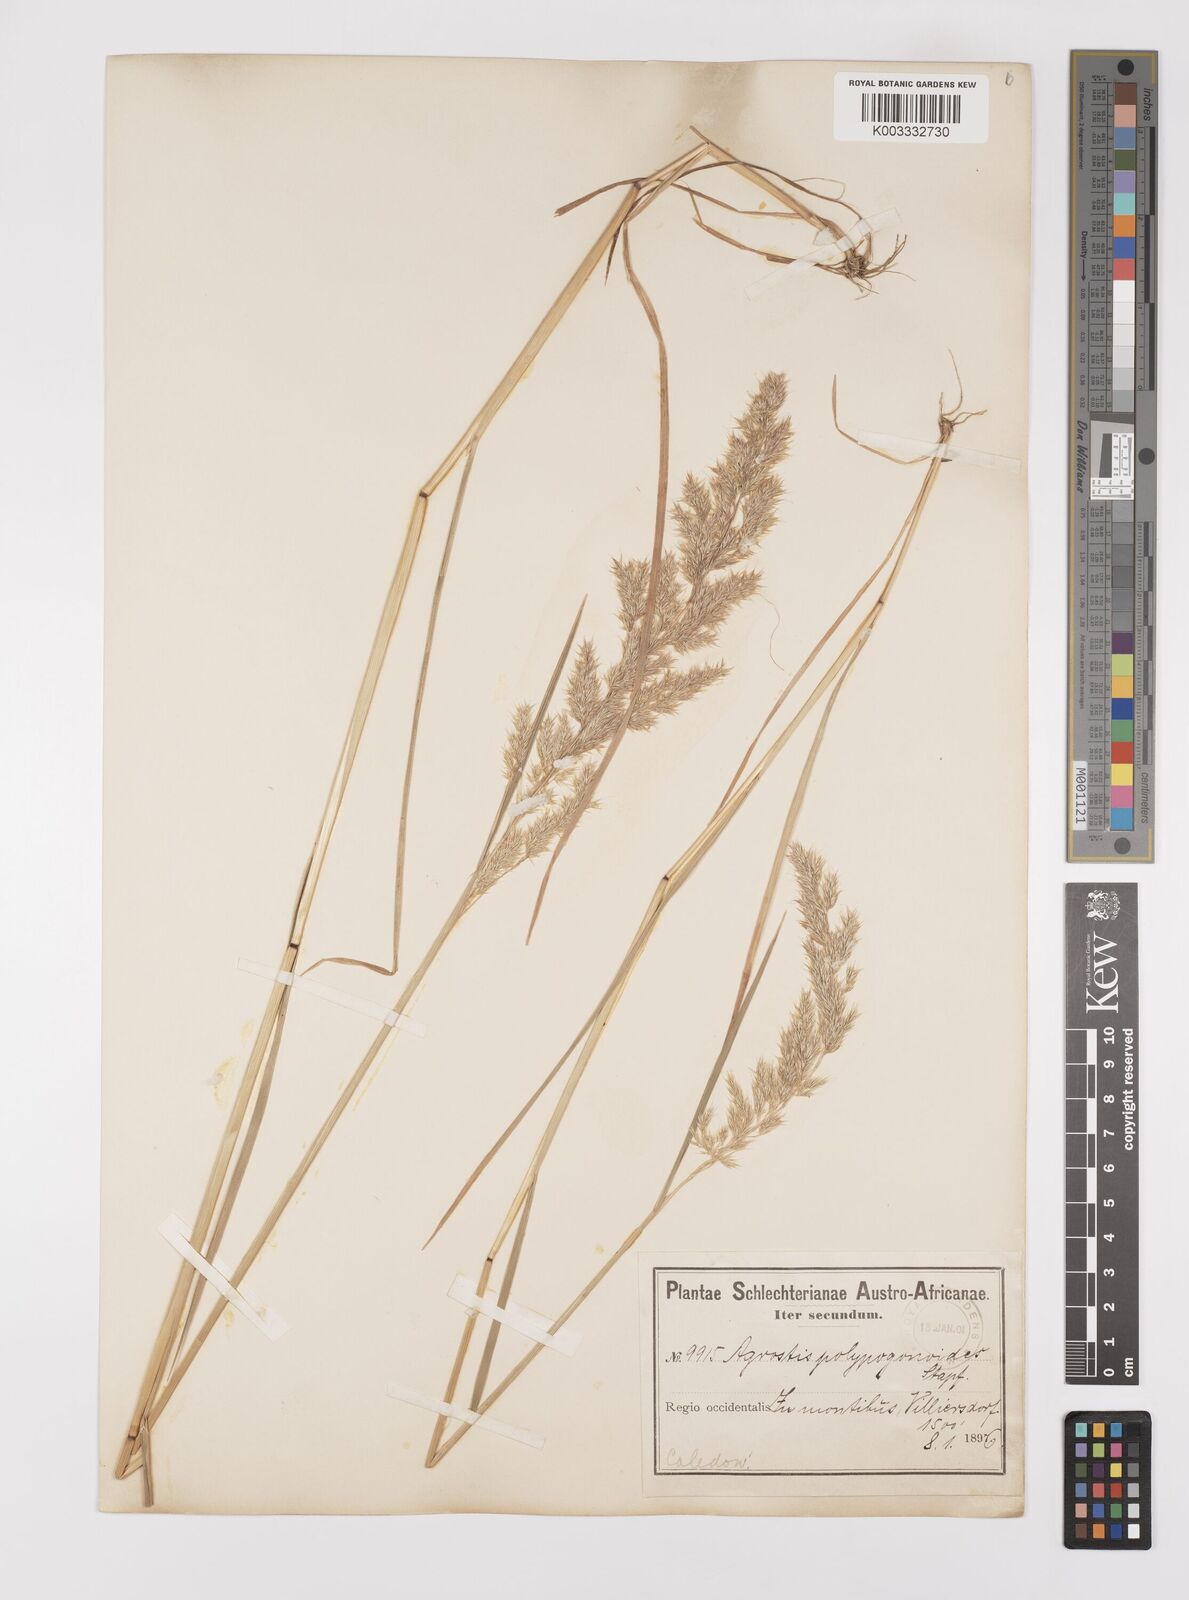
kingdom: Plantae
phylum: Tracheophyta
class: Liliopsida
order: Poales
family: Poaceae
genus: Polypogon
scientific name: Polypogon
